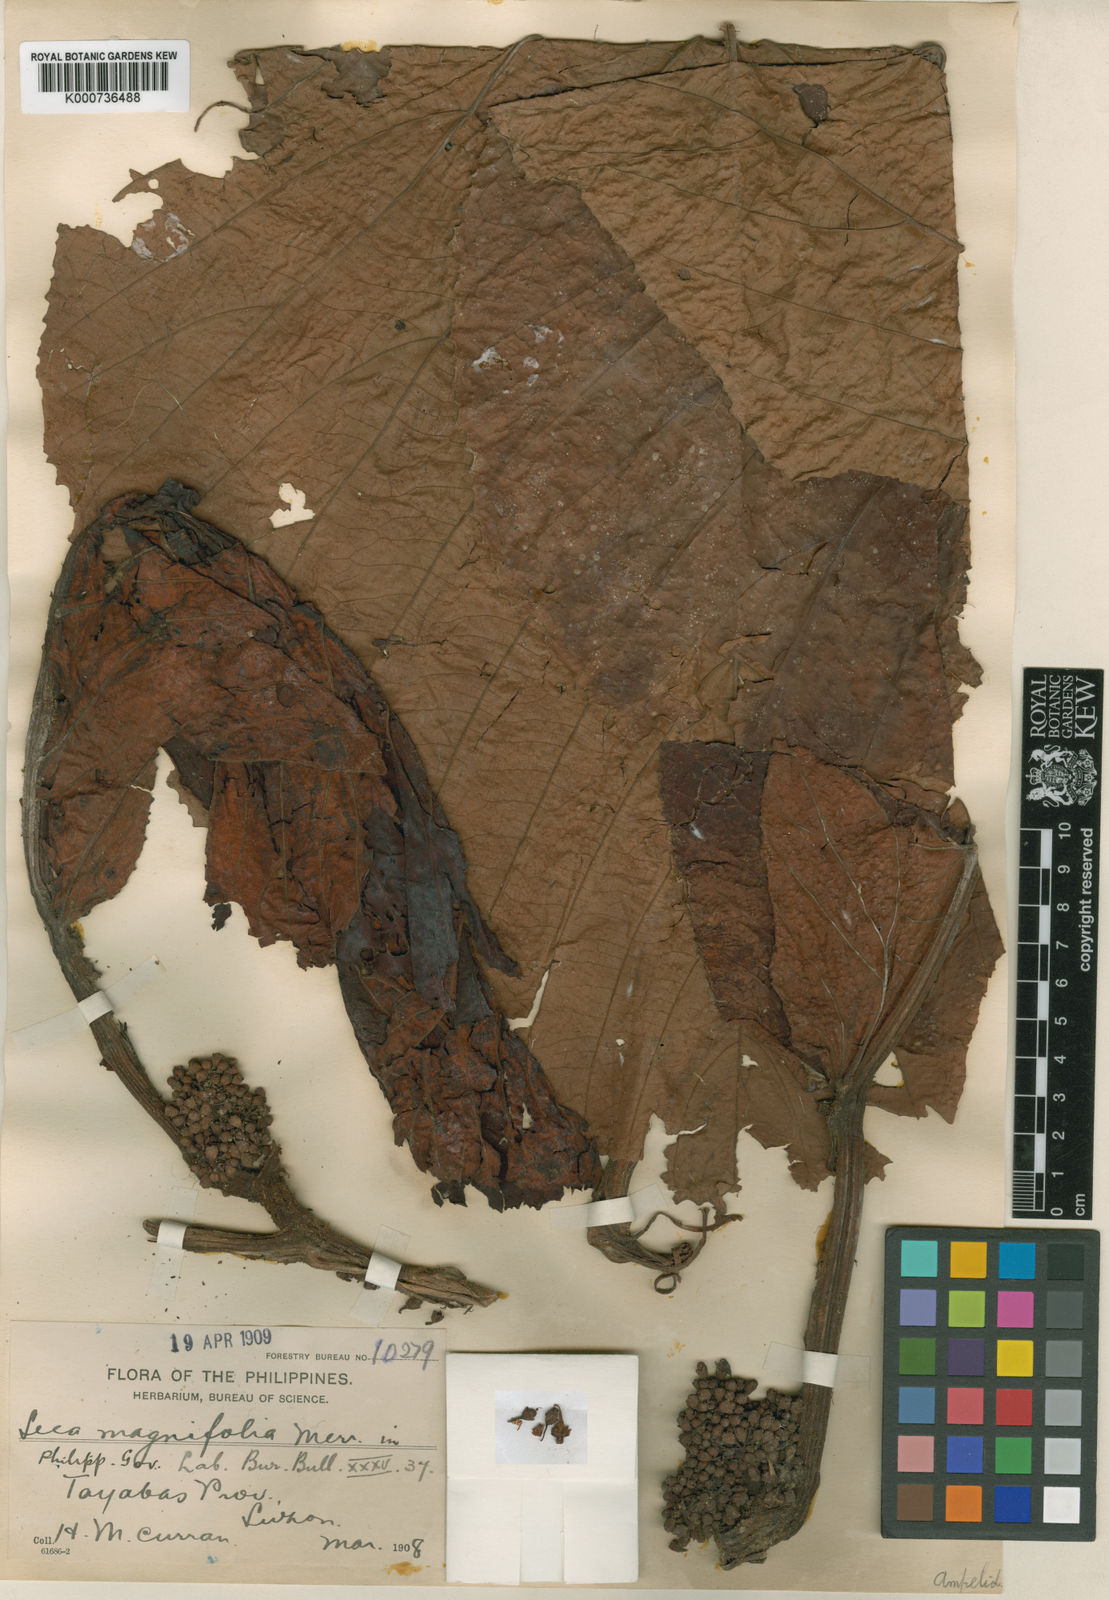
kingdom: Plantae
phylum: Tracheophyta
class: Magnoliopsida
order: Vitales
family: Vitaceae
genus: Leea
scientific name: Leea magnifolia
